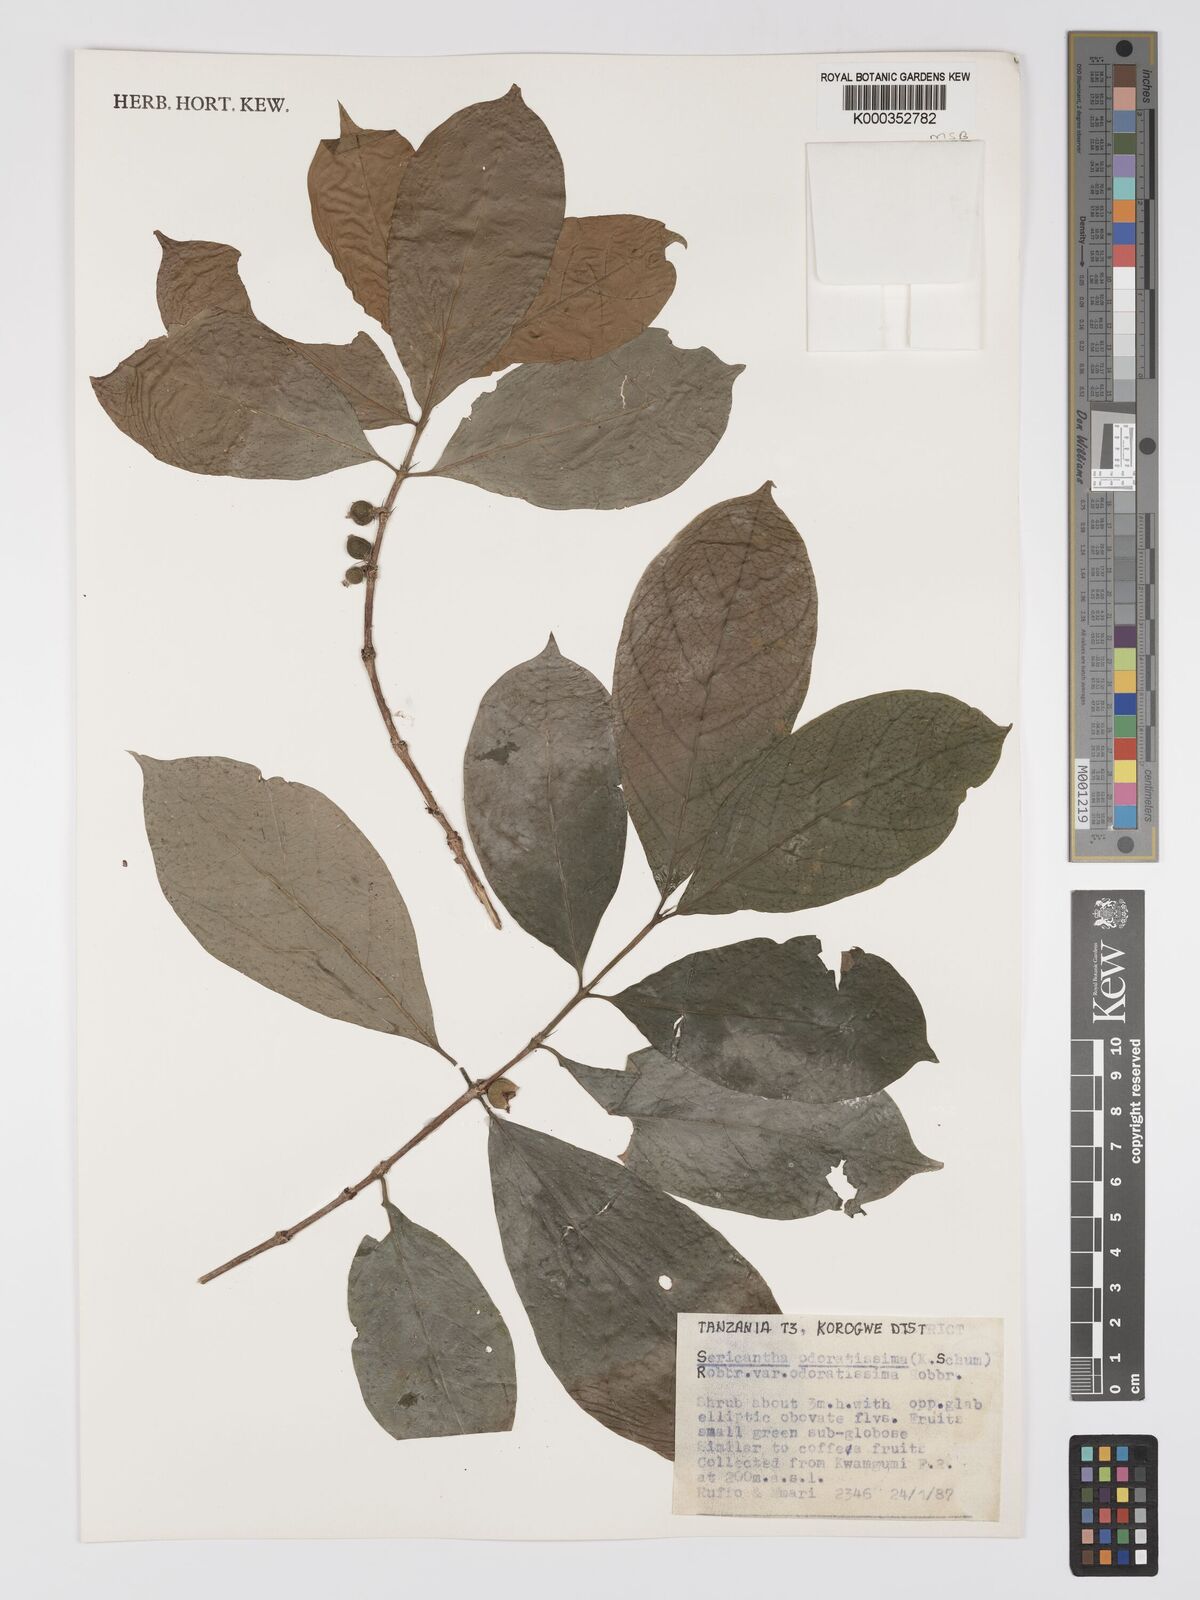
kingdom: Plantae
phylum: Tracheophyta
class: Magnoliopsida
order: Gentianales
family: Rubiaceae
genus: Sericanthe
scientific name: Sericanthe odoratissima
